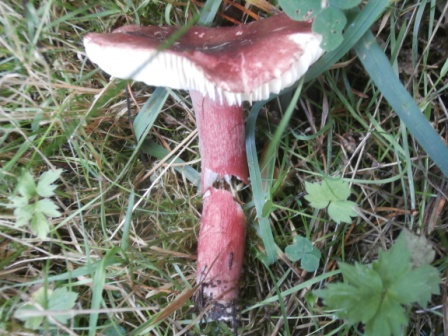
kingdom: Fungi
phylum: Basidiomycota
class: Agaricomycetes
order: Russulales
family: Russulaceae
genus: Russula
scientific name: Russula queletii
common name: Quélets skørhat
